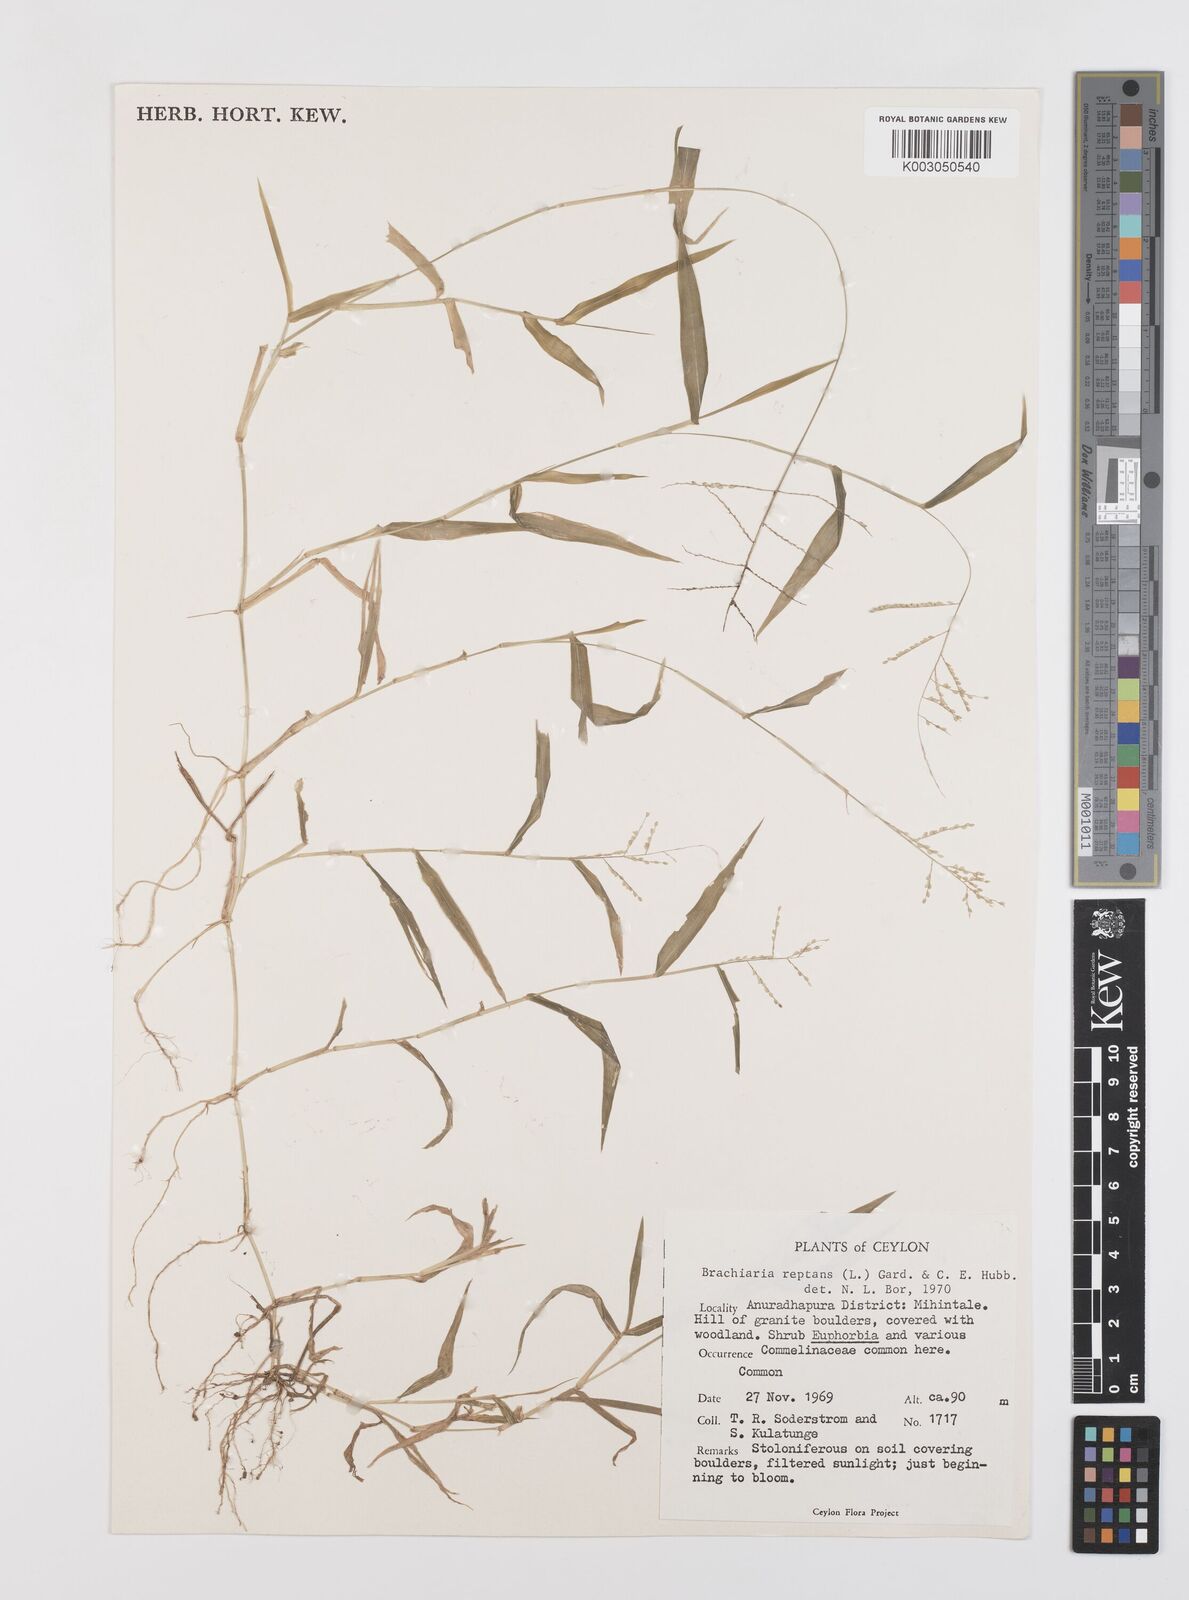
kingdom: Plantae
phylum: Tracheophyta
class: Liliopsida
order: Poales
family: Poaceae
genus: Urochloa
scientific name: Urochloa reptans
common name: Sprawling signalgrass
